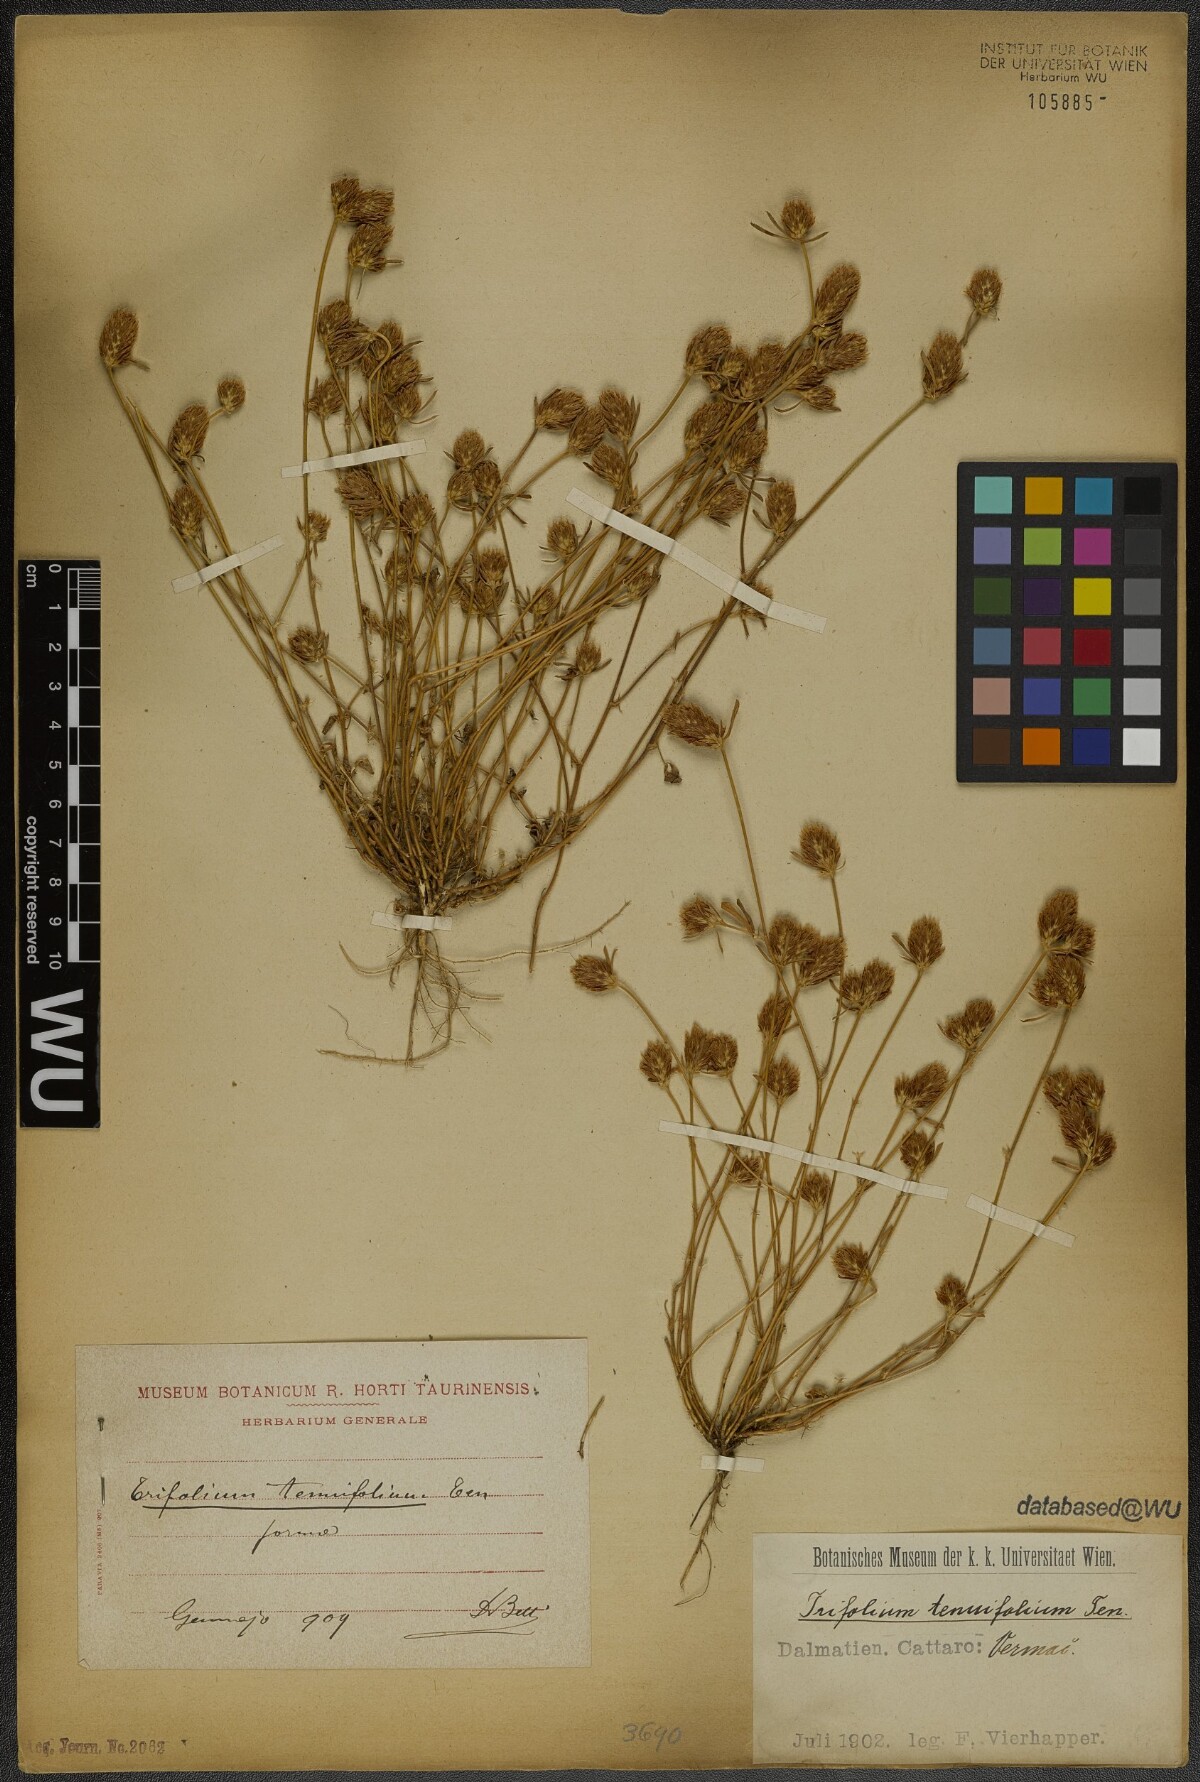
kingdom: Plantae
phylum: Tracheophyta
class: Magnoliopsida
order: Fabales
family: Fabaceae
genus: Trifolium
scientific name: Trifolium tenuifolium
